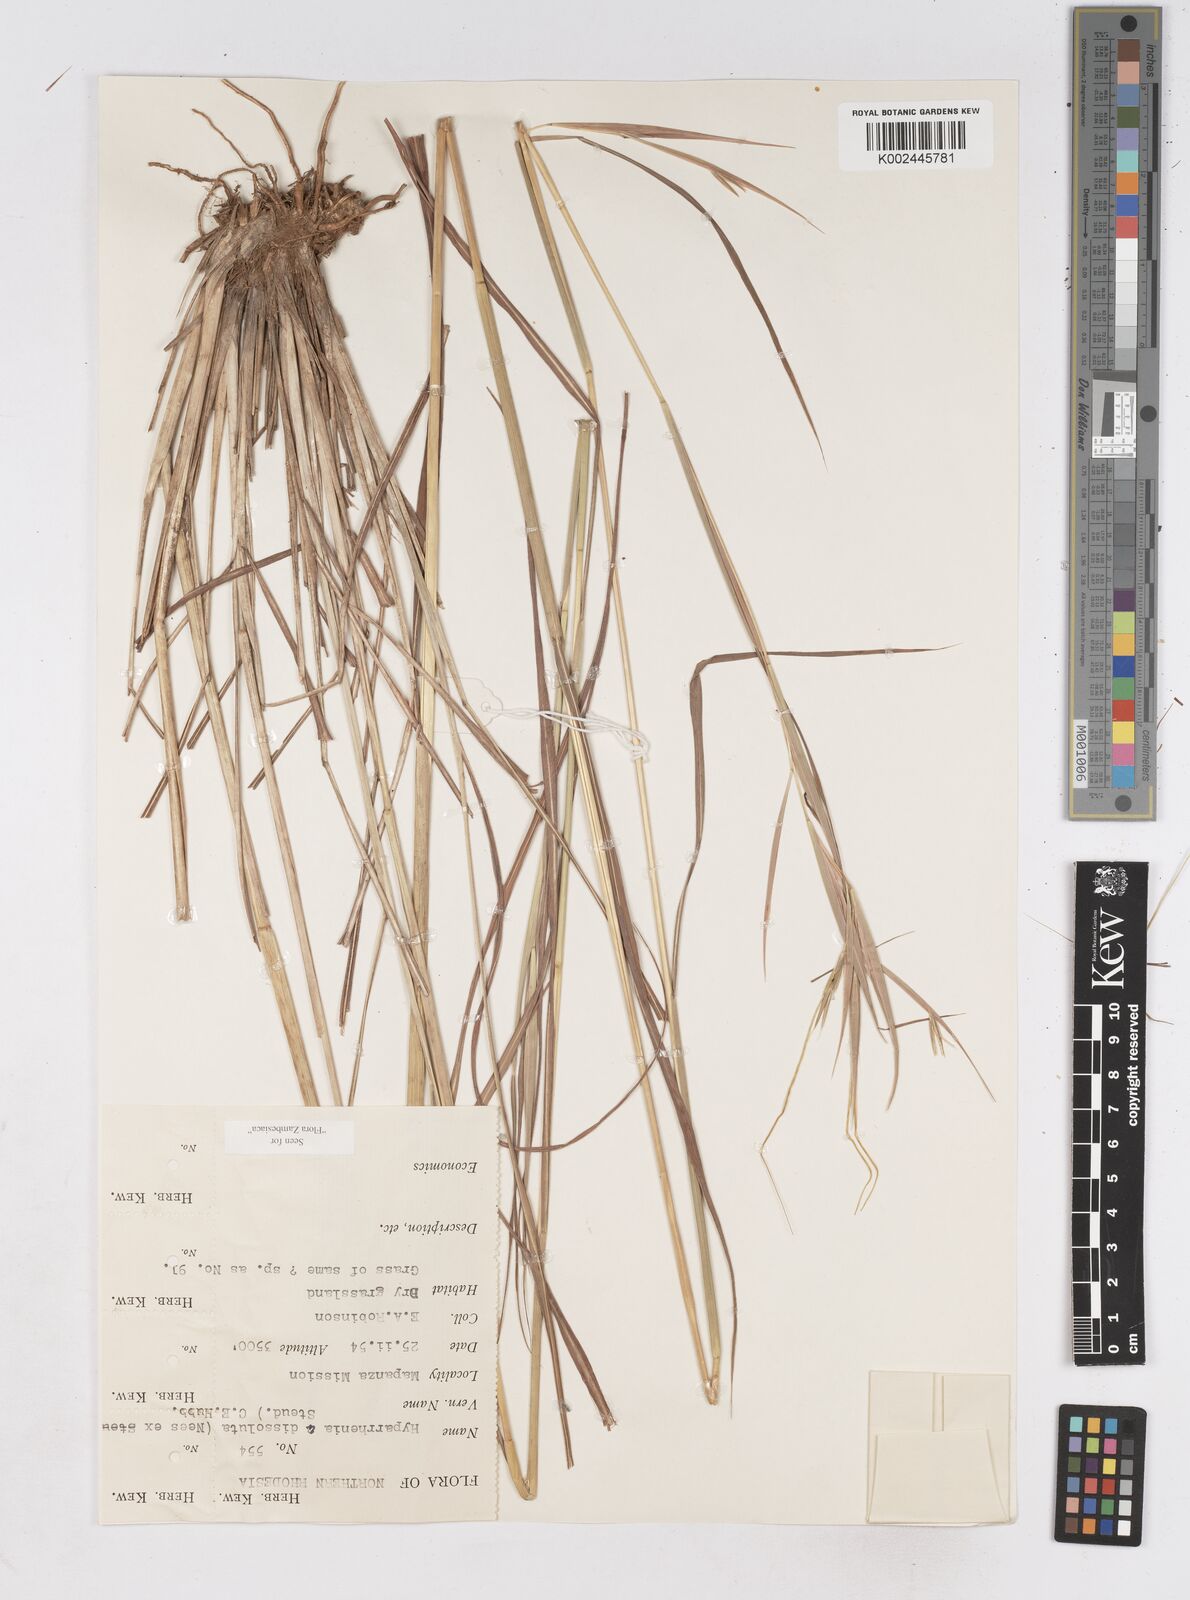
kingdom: Plantae
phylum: Tracheophyta
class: Liliopsida
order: Poales
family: Poaceae
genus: Hyperthelia
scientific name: Hyperthelia dissoluta
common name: Yellow thatching grass
